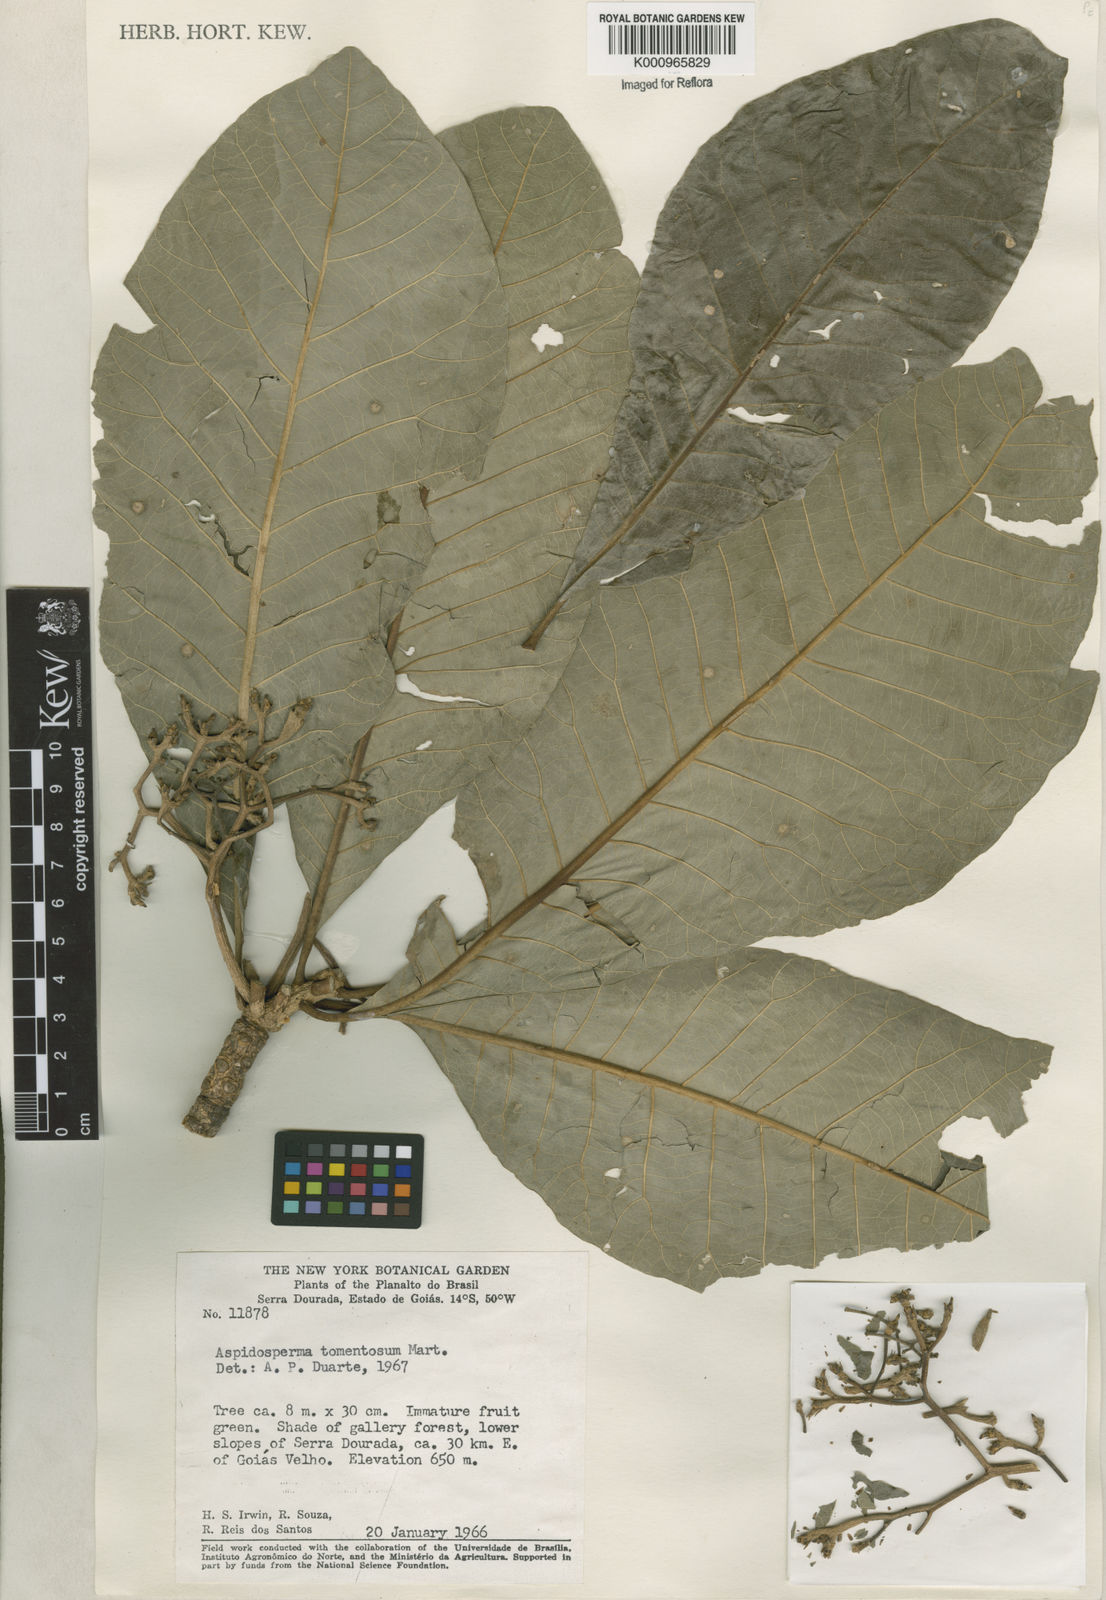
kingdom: Plantae
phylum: Tracheophyta
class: Magnoliopsida
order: Gentianales
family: Apocynaceae
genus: Aspidosperma
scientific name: Aspidosperma tomentosum
